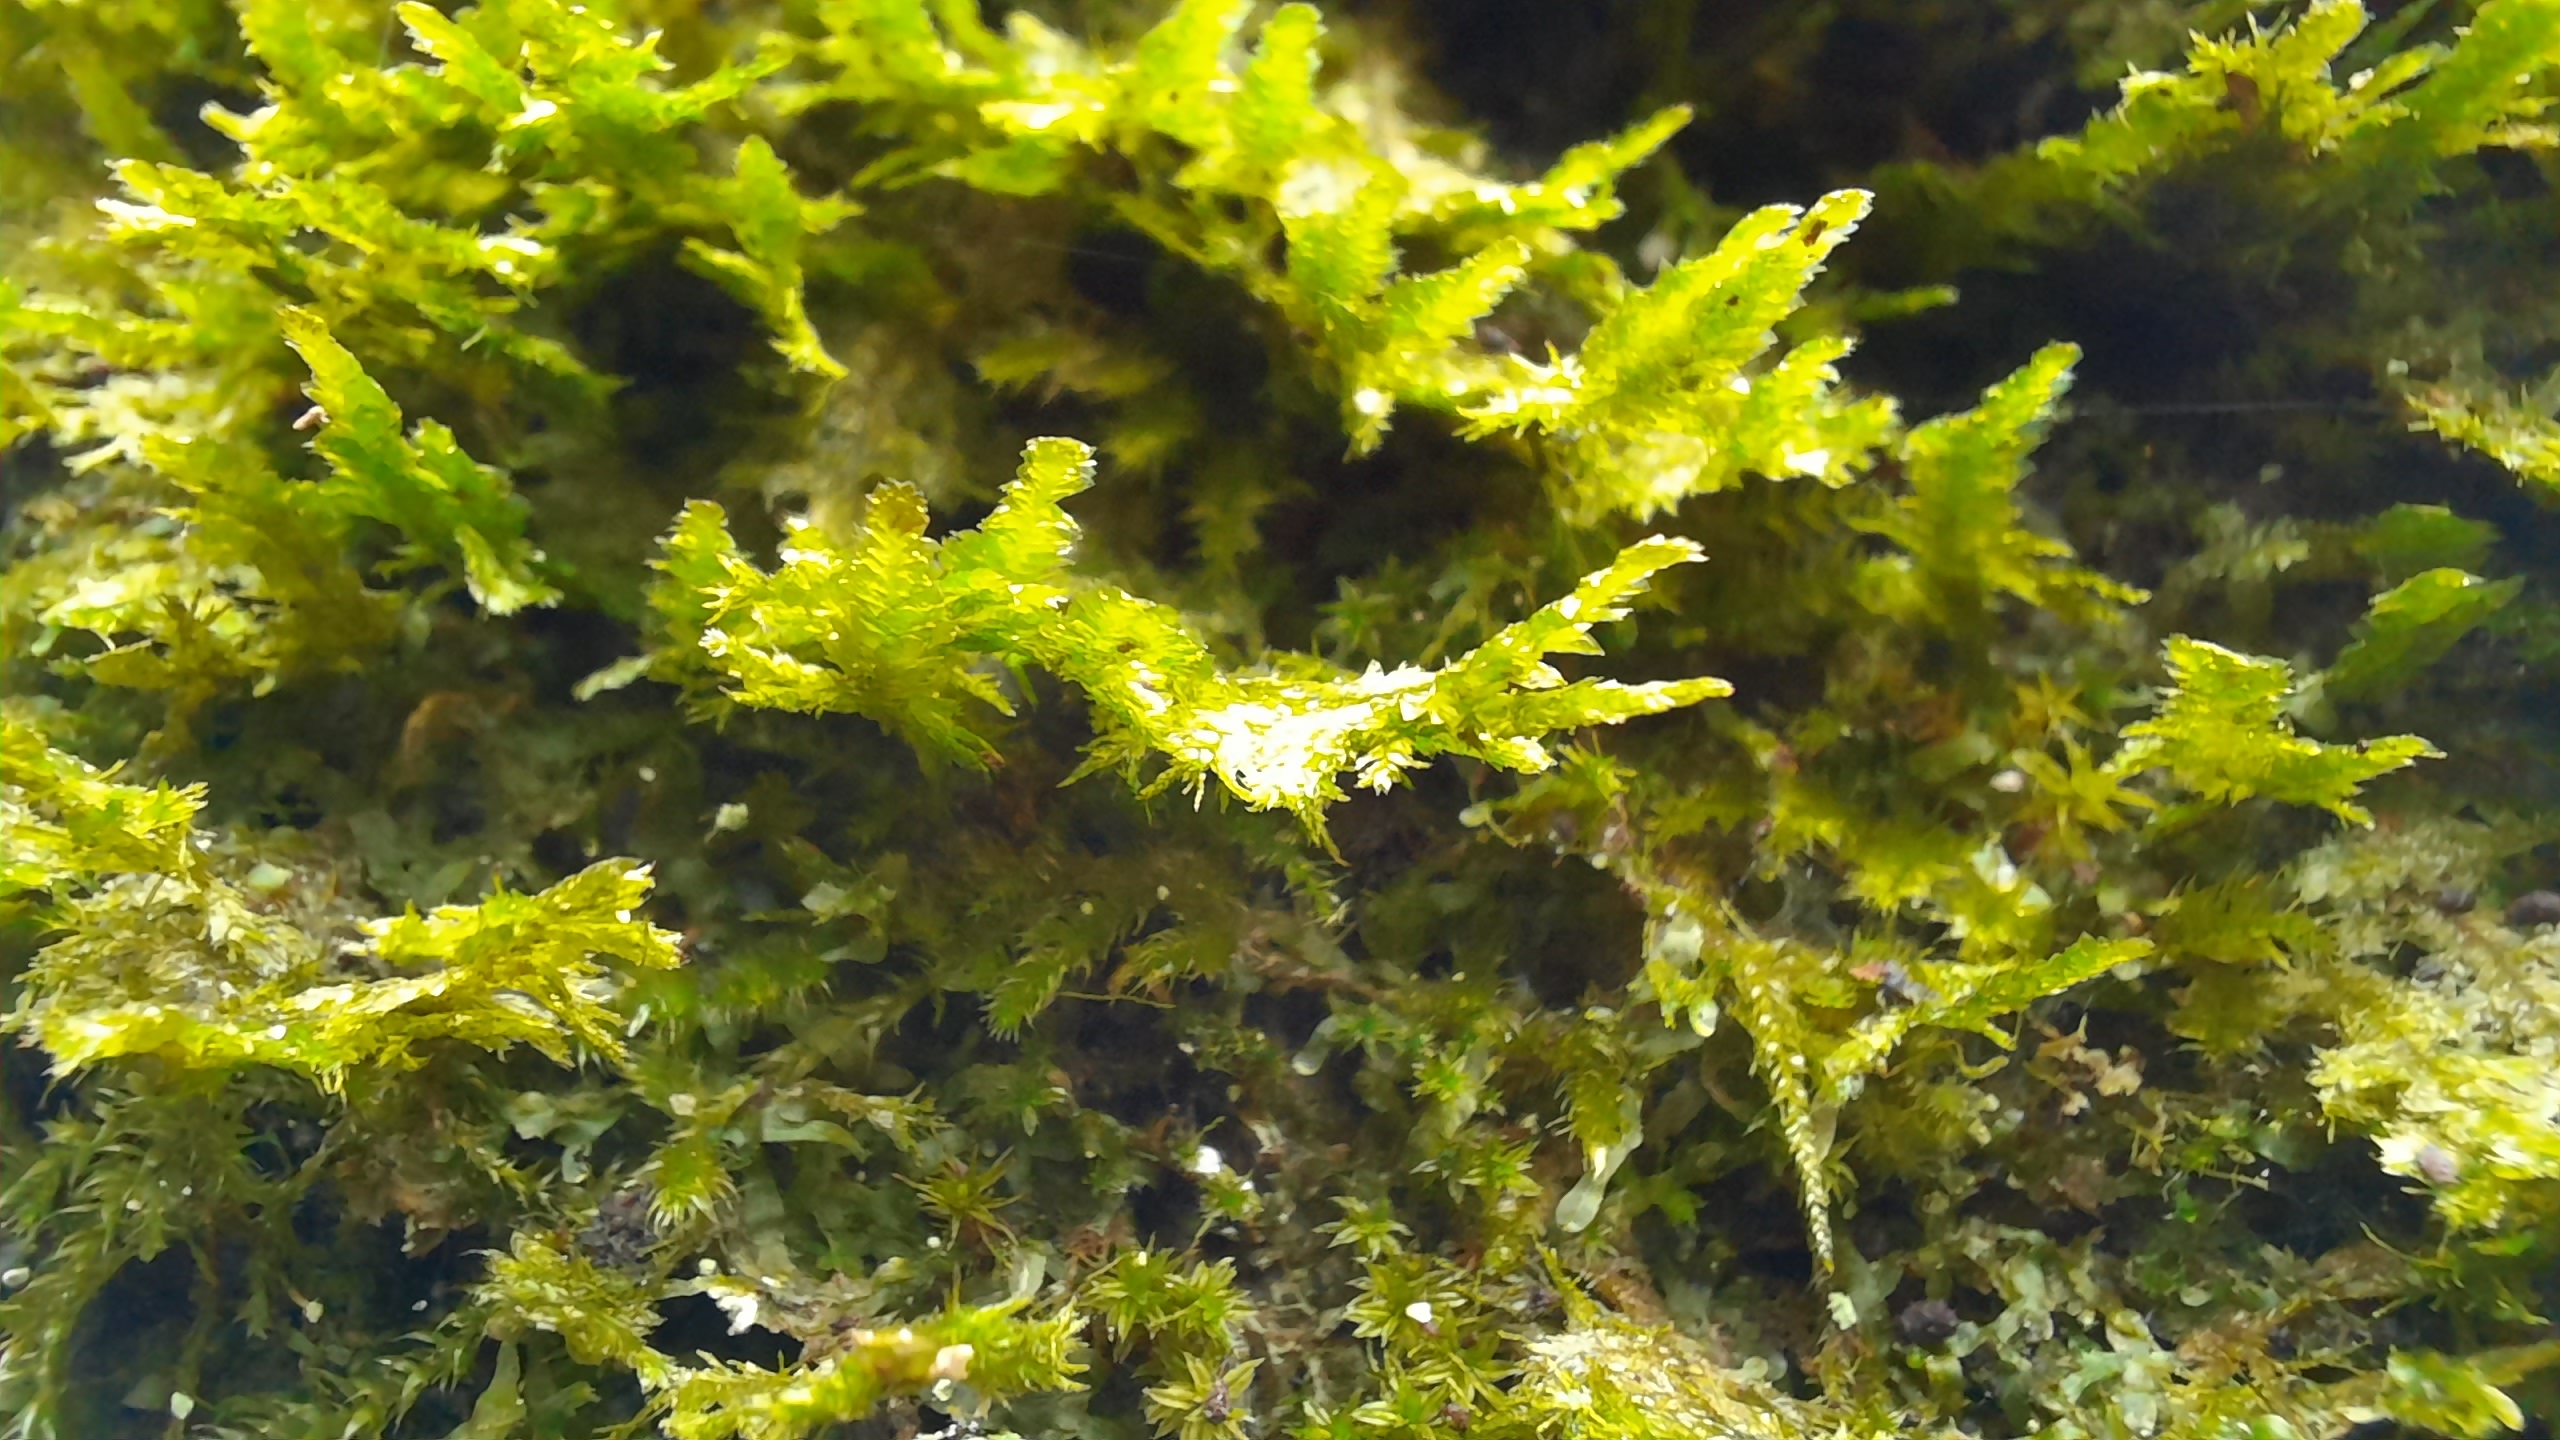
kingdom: Plantae
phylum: Bryophyta
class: Bryopsida
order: Hypnales
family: Neckeraceae
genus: Neckera
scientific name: Neckera pumila
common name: Lav fladmos
